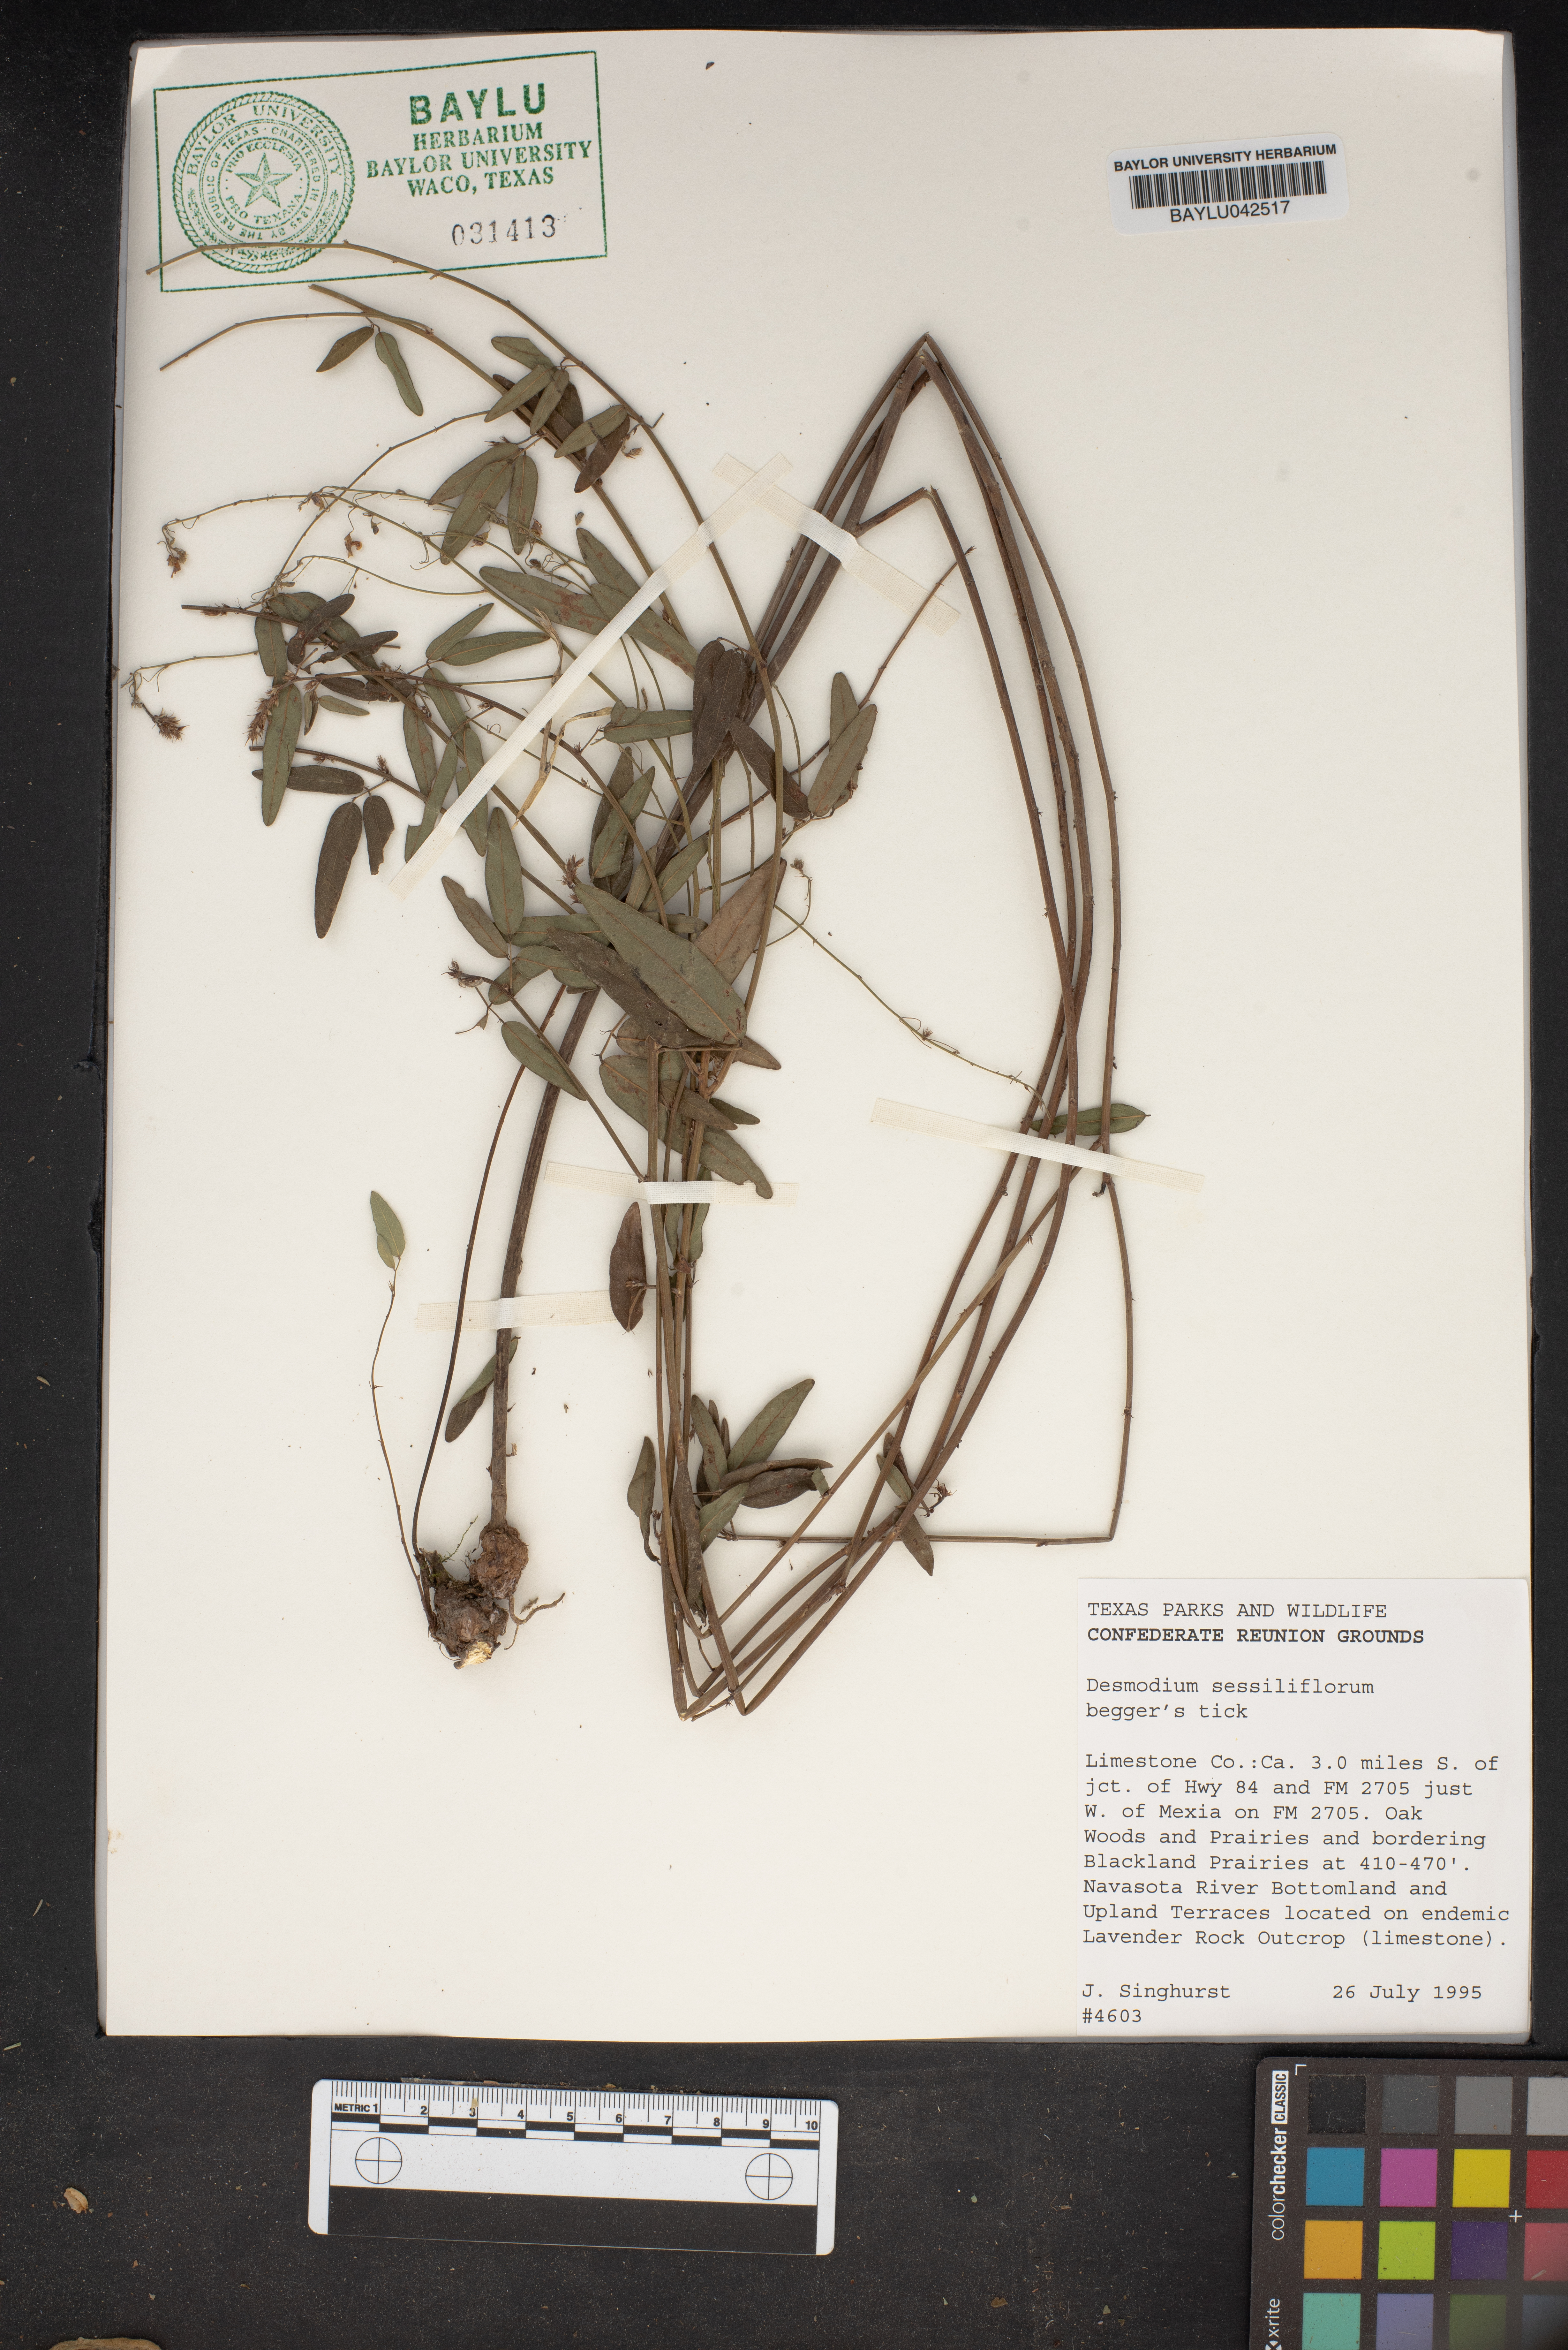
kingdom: Plantae
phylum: Tracheophyta
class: Magnoliopsida
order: Fabales
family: Fabaceae
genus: Desmodium
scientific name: Desmodium sessilifolium
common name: Sessile tick-clover
